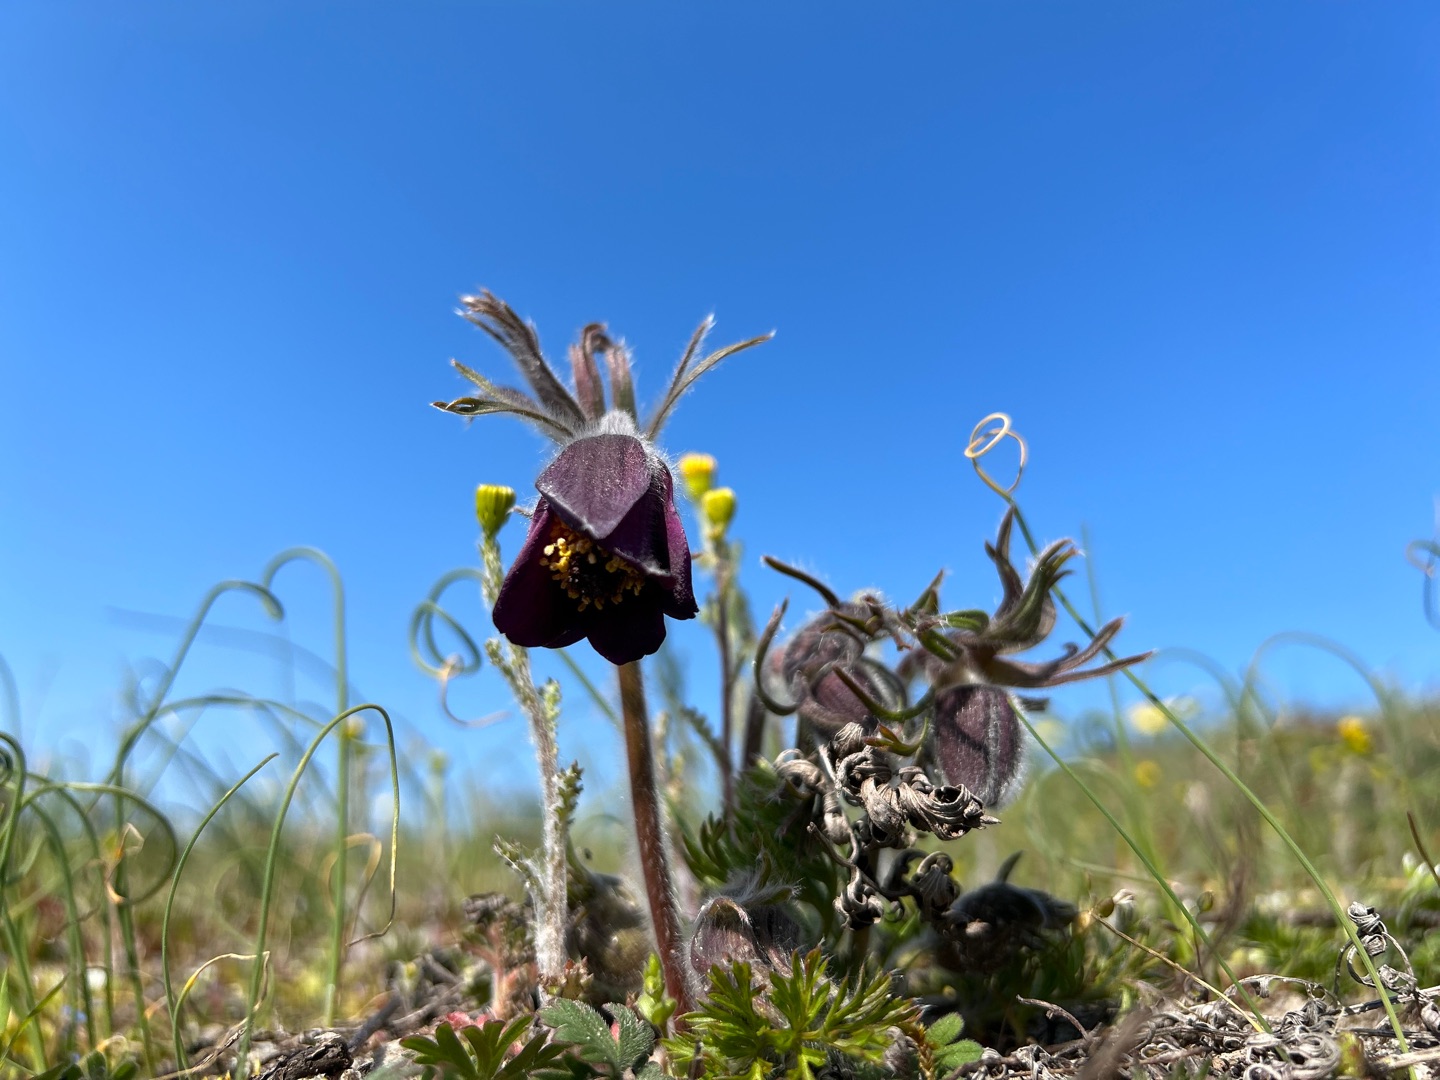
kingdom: Plantae
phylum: Tracheophyta
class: Magnoliopsida
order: Ranunculales
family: Ranunculaceae
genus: Pulsatilla
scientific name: Pulsatilla pratensis
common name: Nikkende kobjælde
